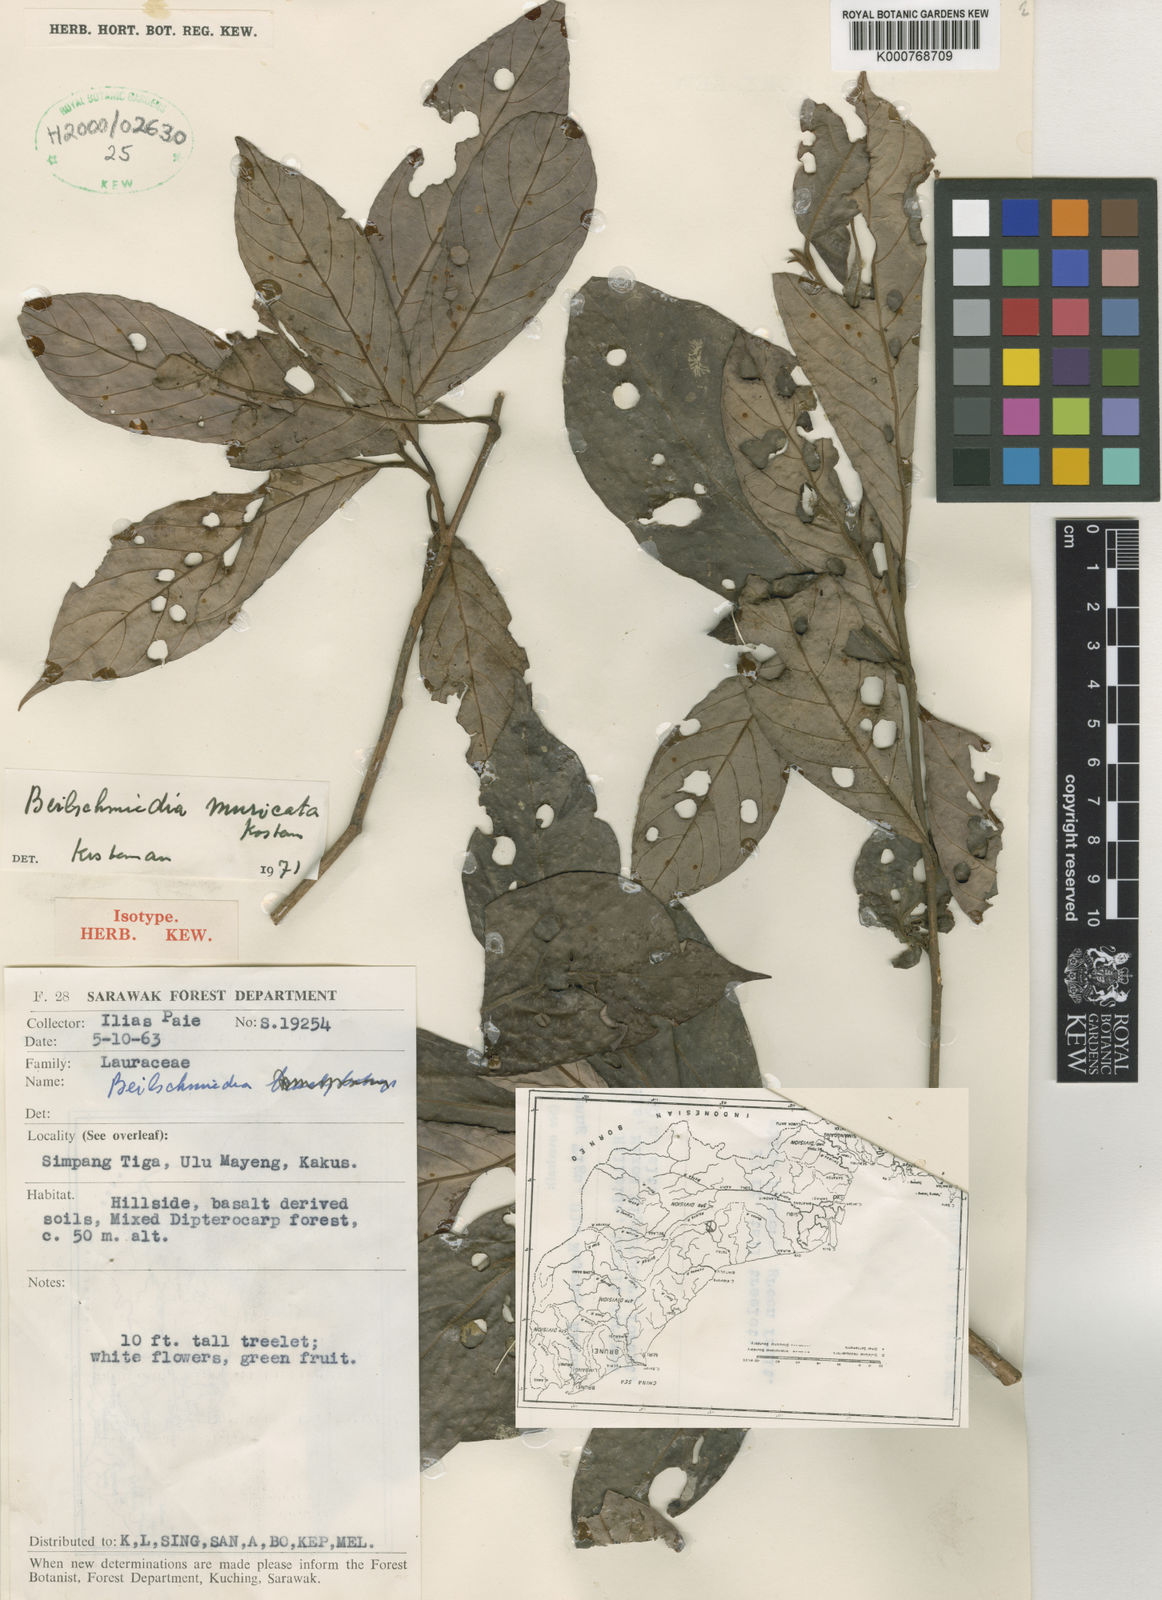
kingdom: Plantae
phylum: Tracheophyta
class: Magnoliopsida
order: Laurales
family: Lauraceae
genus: Beilschmiedia
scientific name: Beilschmiedia
